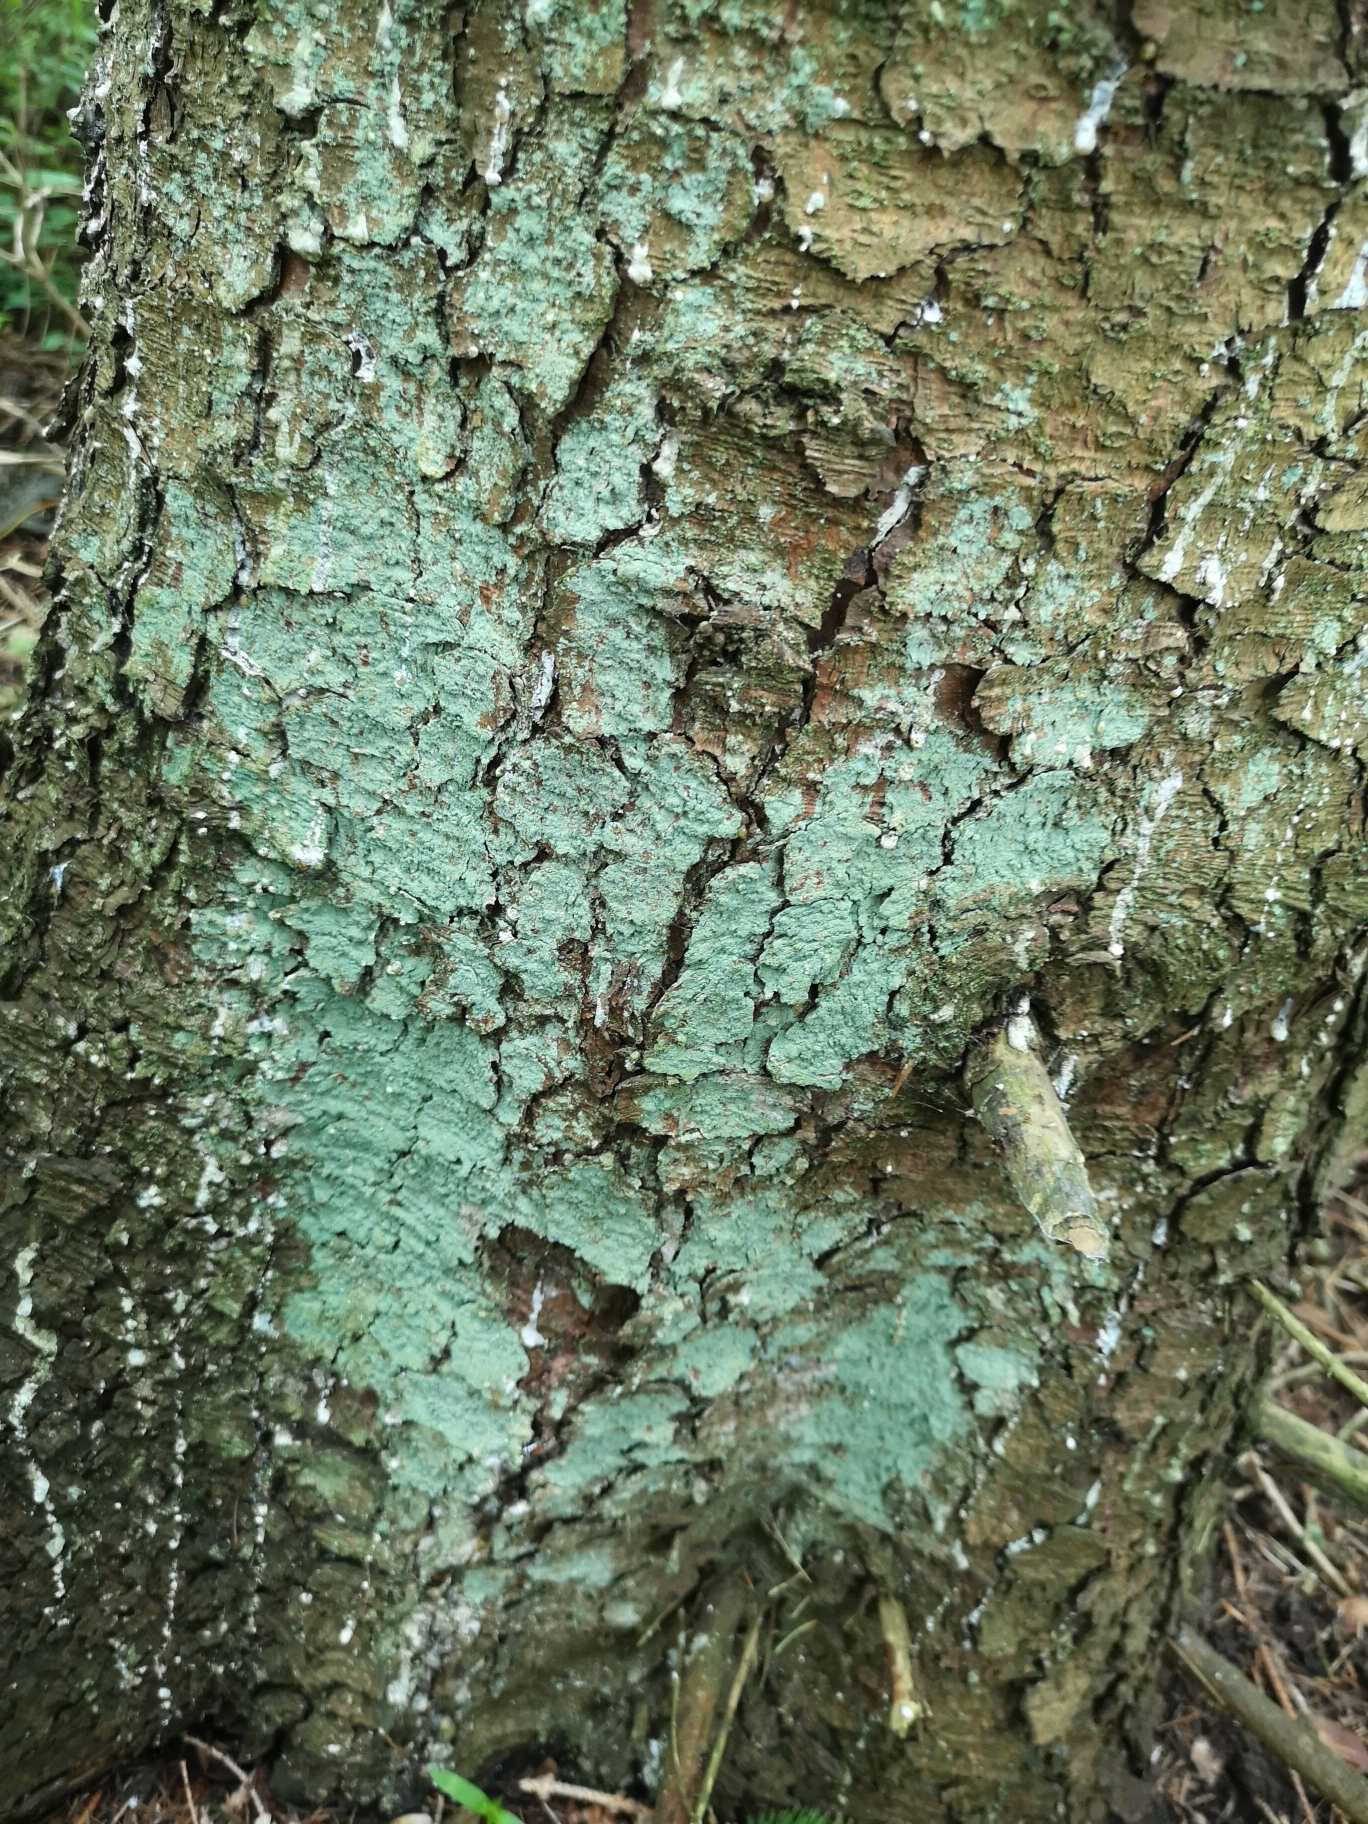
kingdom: Fungi
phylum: Ascomycota
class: Lecanoromycetes
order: Lecanorales
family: Stereocaulaceae
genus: Lepraria
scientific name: Lepraria
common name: Støvlav
